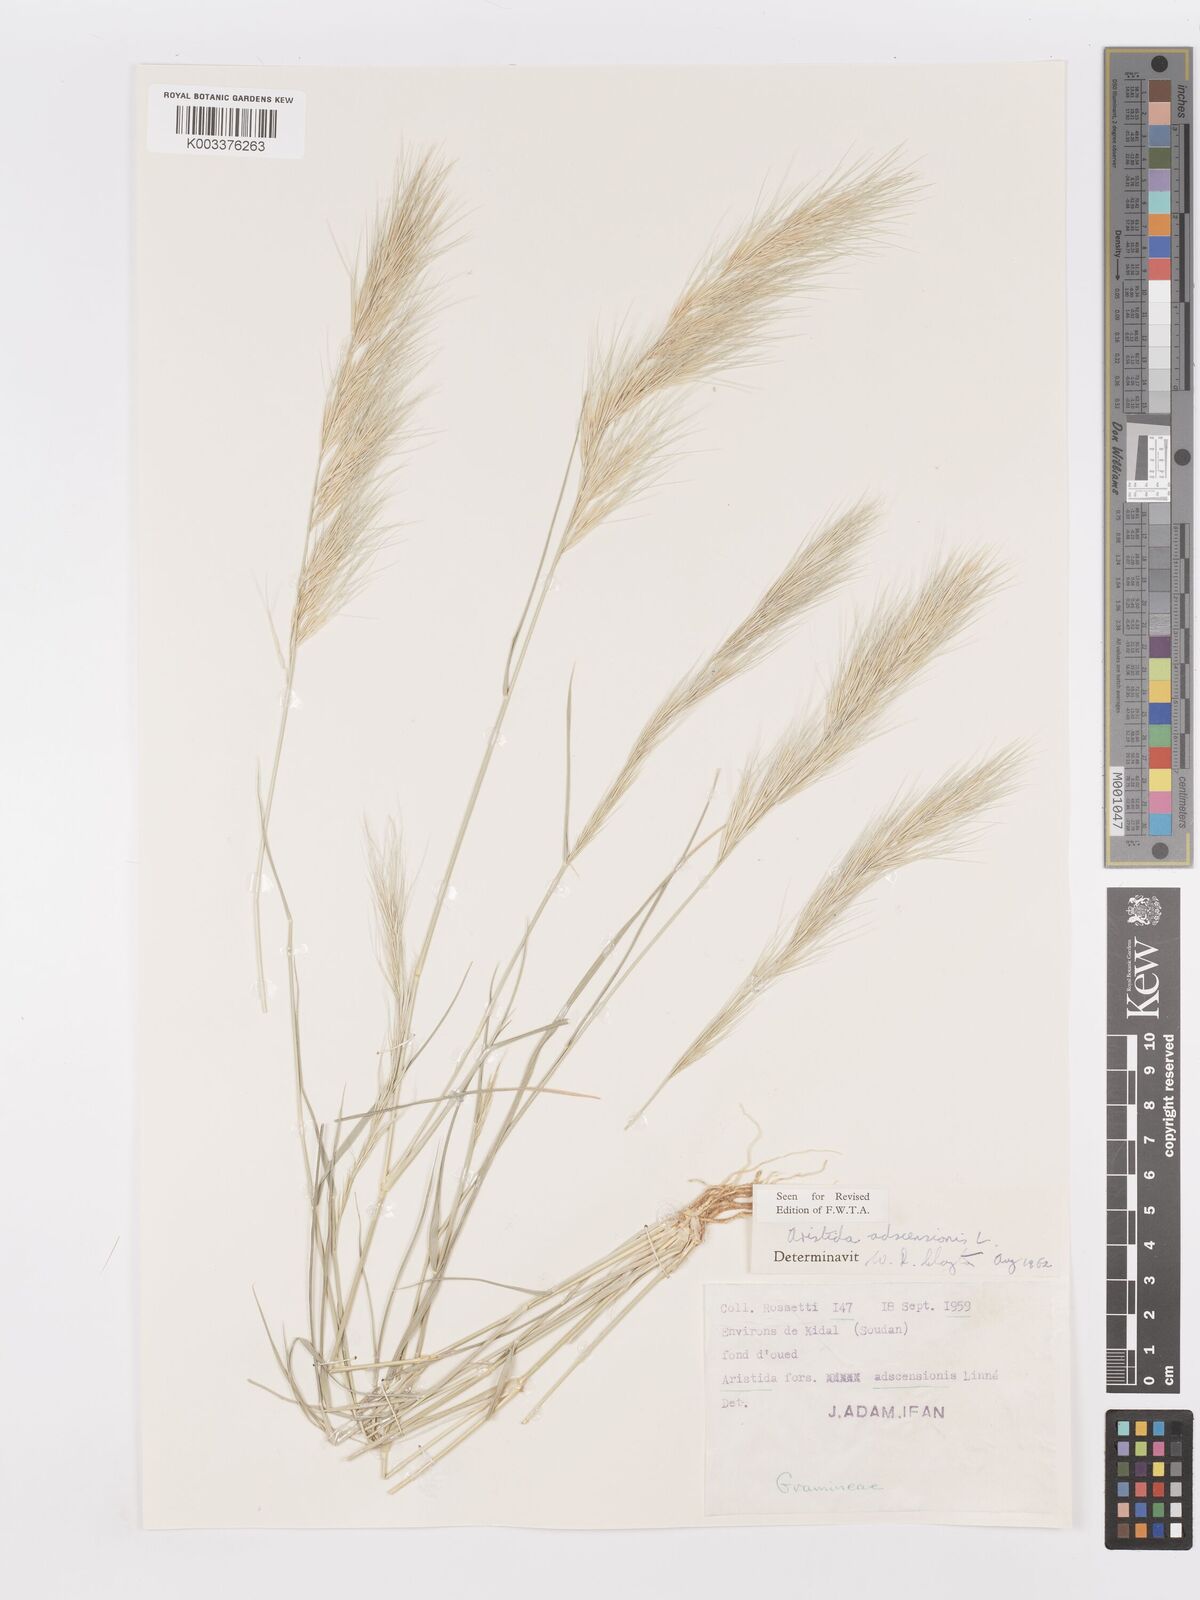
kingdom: Plantae
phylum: Tracheophyta
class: Liliopsida
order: Poales
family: Poaceae
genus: Aristida
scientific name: Aristida adscensionis
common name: Sixweeks threeawn
